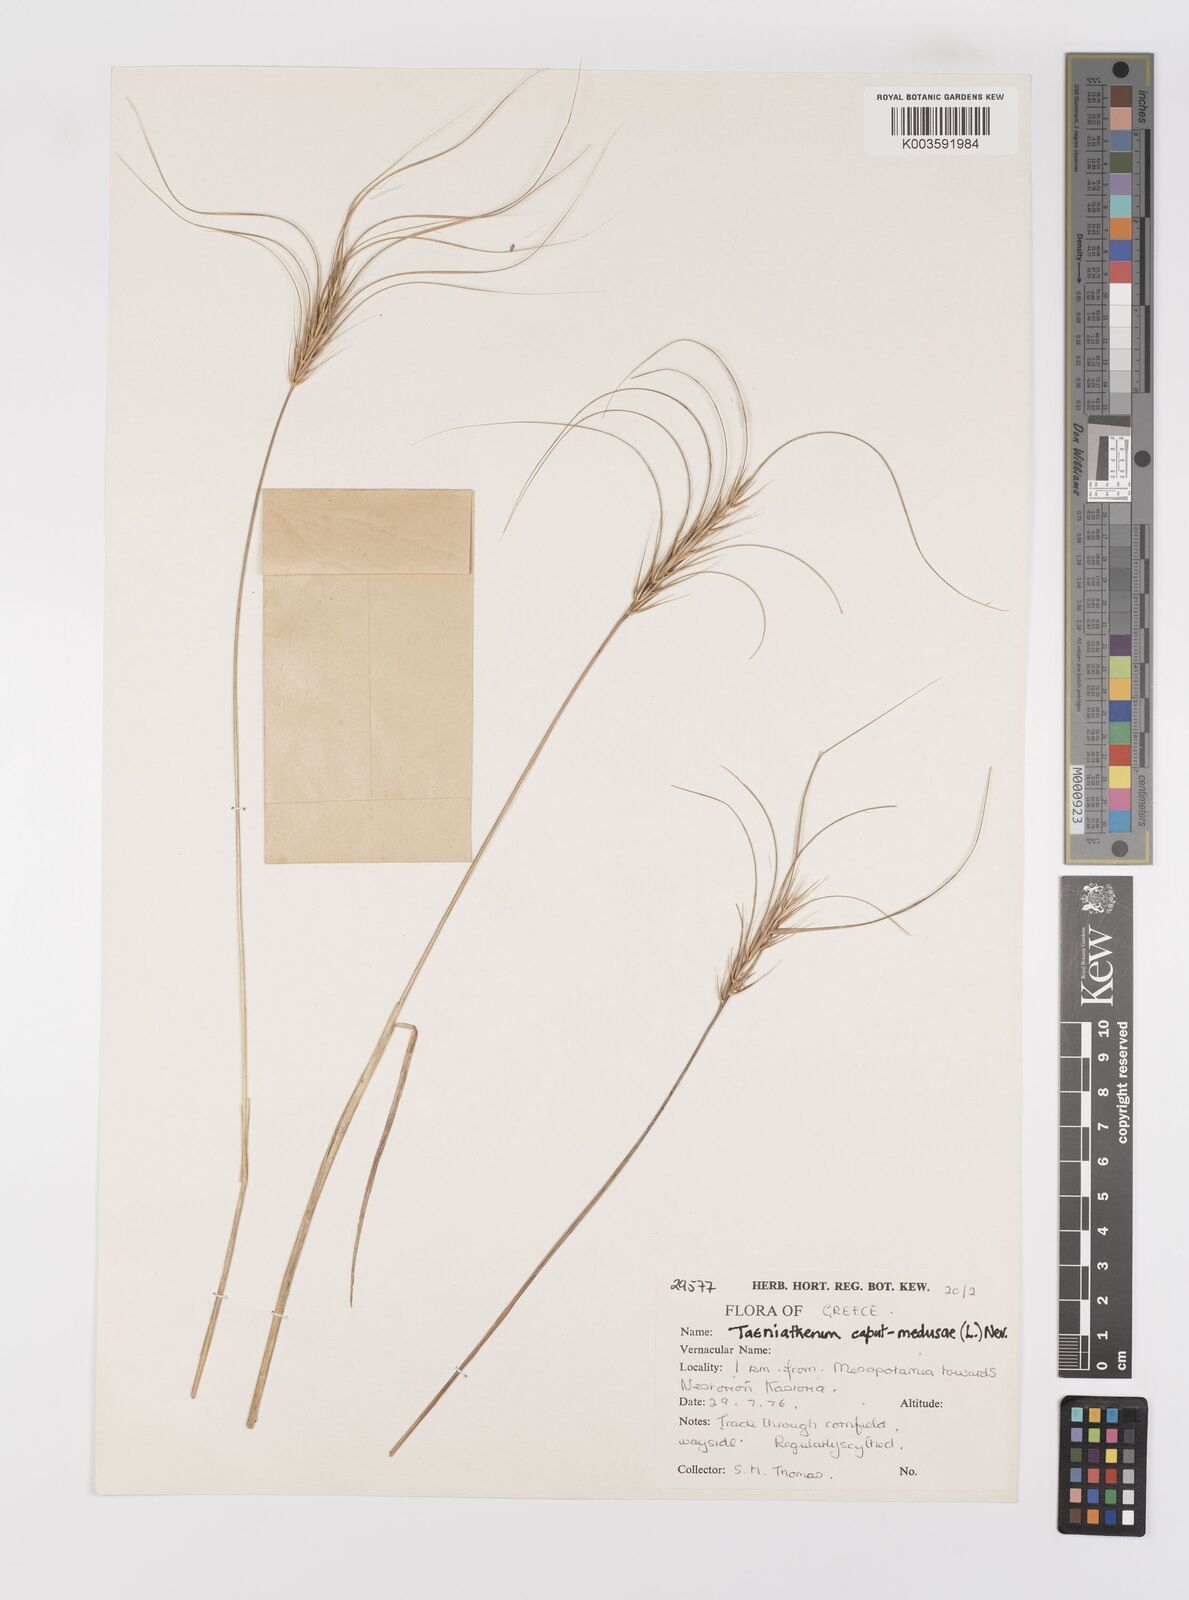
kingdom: Plantae
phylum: Tracheophyta
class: Liliopsida
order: Poales
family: Poaceae
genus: Taeniatherum
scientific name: Taeniatherum caput-medusae
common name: Medusahead
